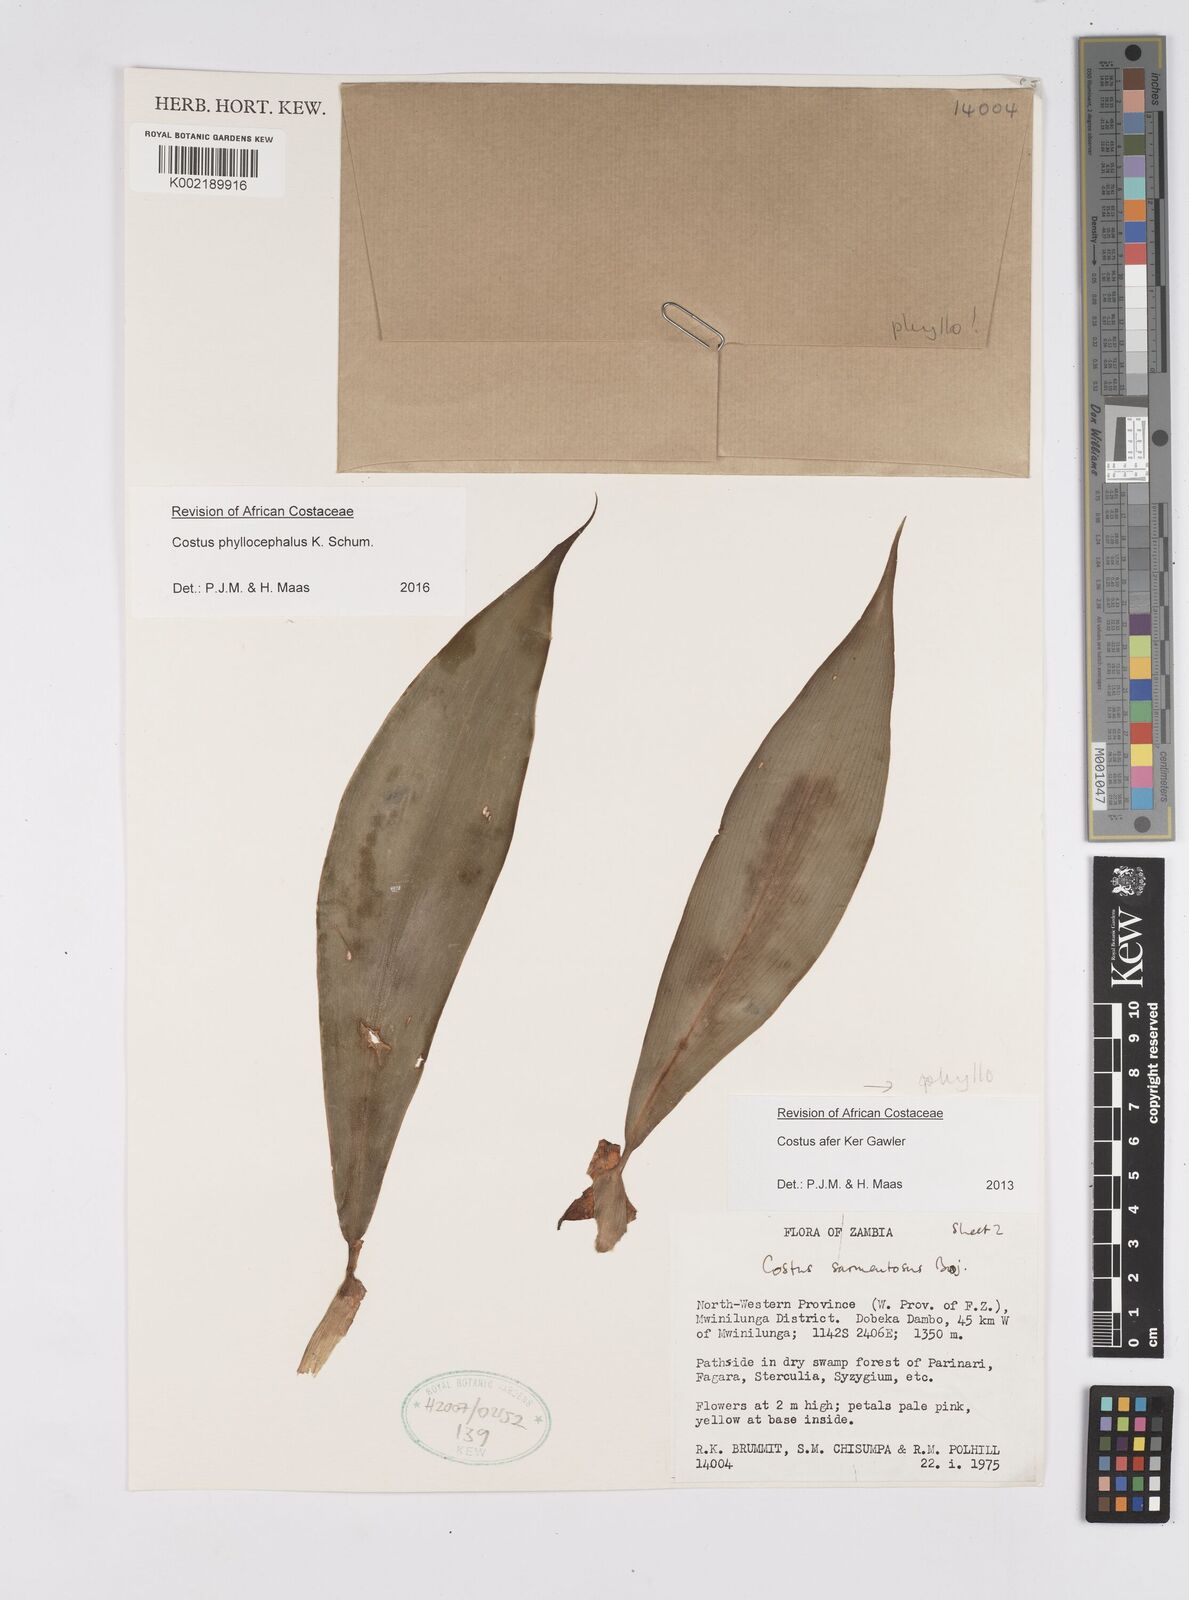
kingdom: Plantae
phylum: Tracheophyta
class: Liliopsida
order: Zingiberales
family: Costaceae
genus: Costus
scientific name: Costus phyllocephalus
